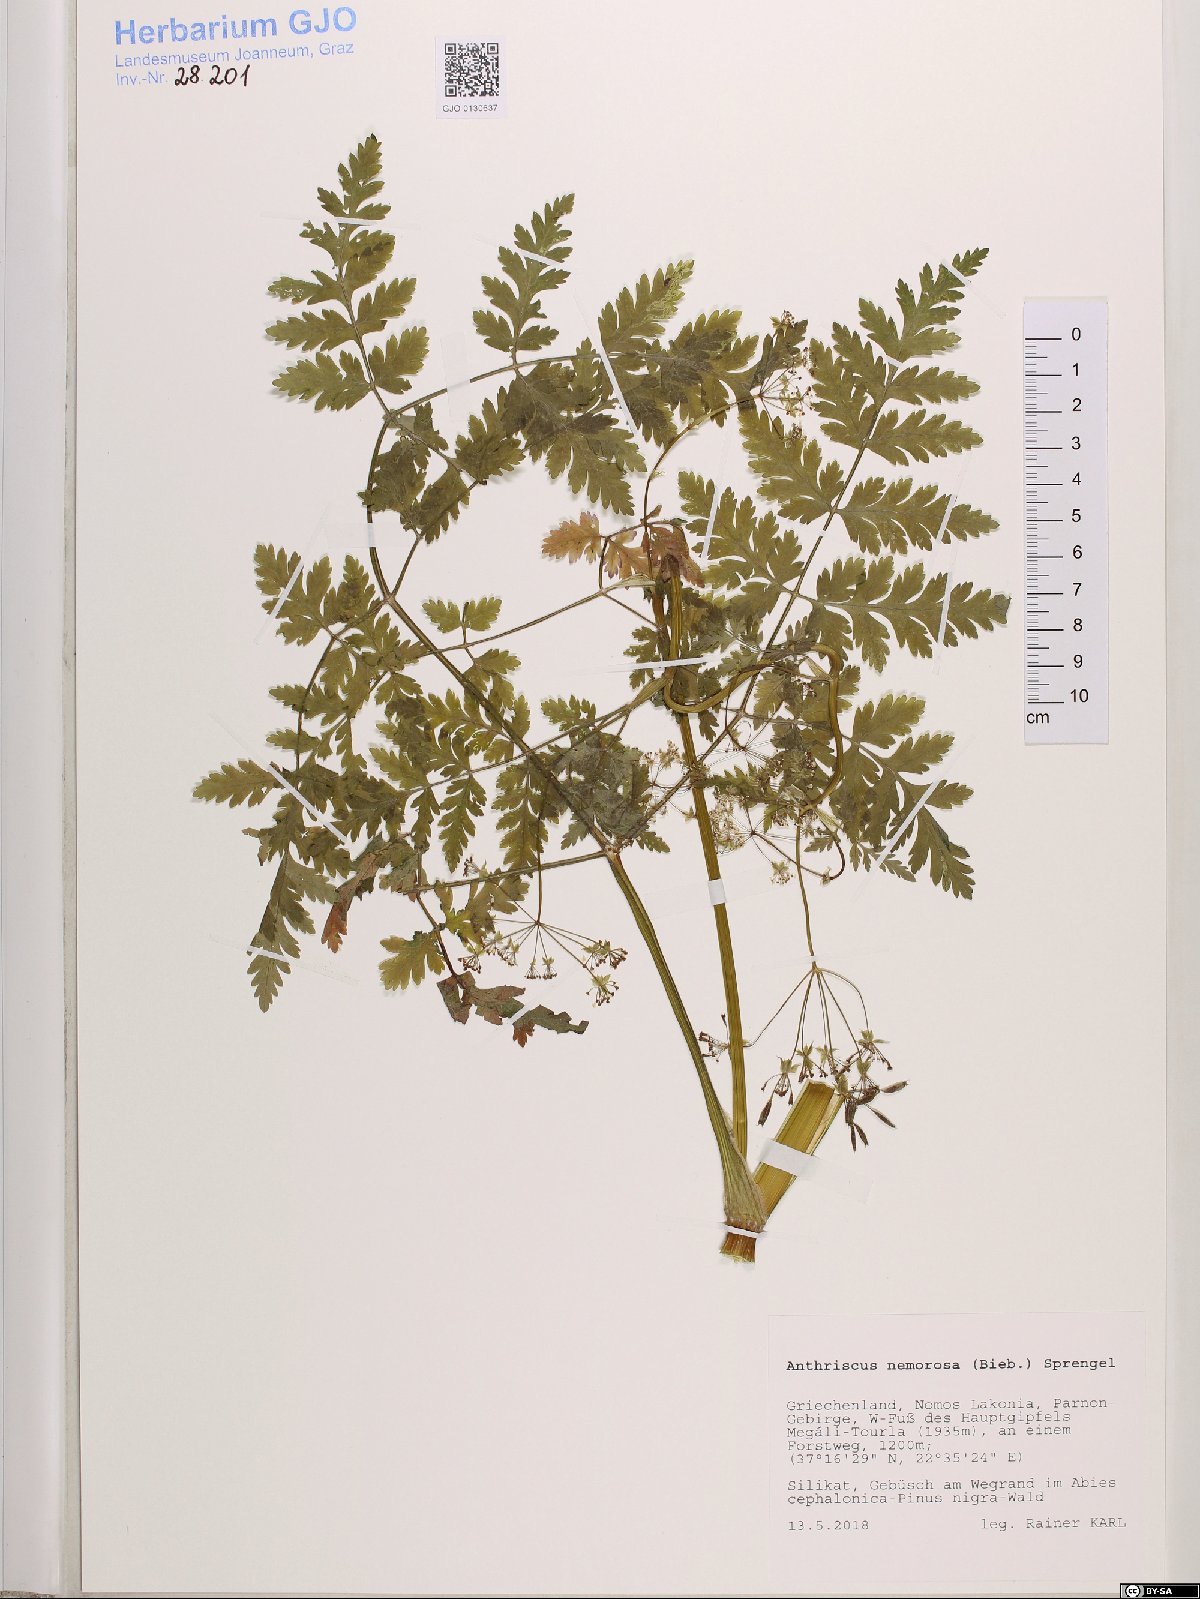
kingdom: Plantae
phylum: Tracheophyta
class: Magnoliopsida
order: Apiales
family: Apiaceae
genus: Anthriscus
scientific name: Anthriscus sylvestris
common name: Cow parsley
